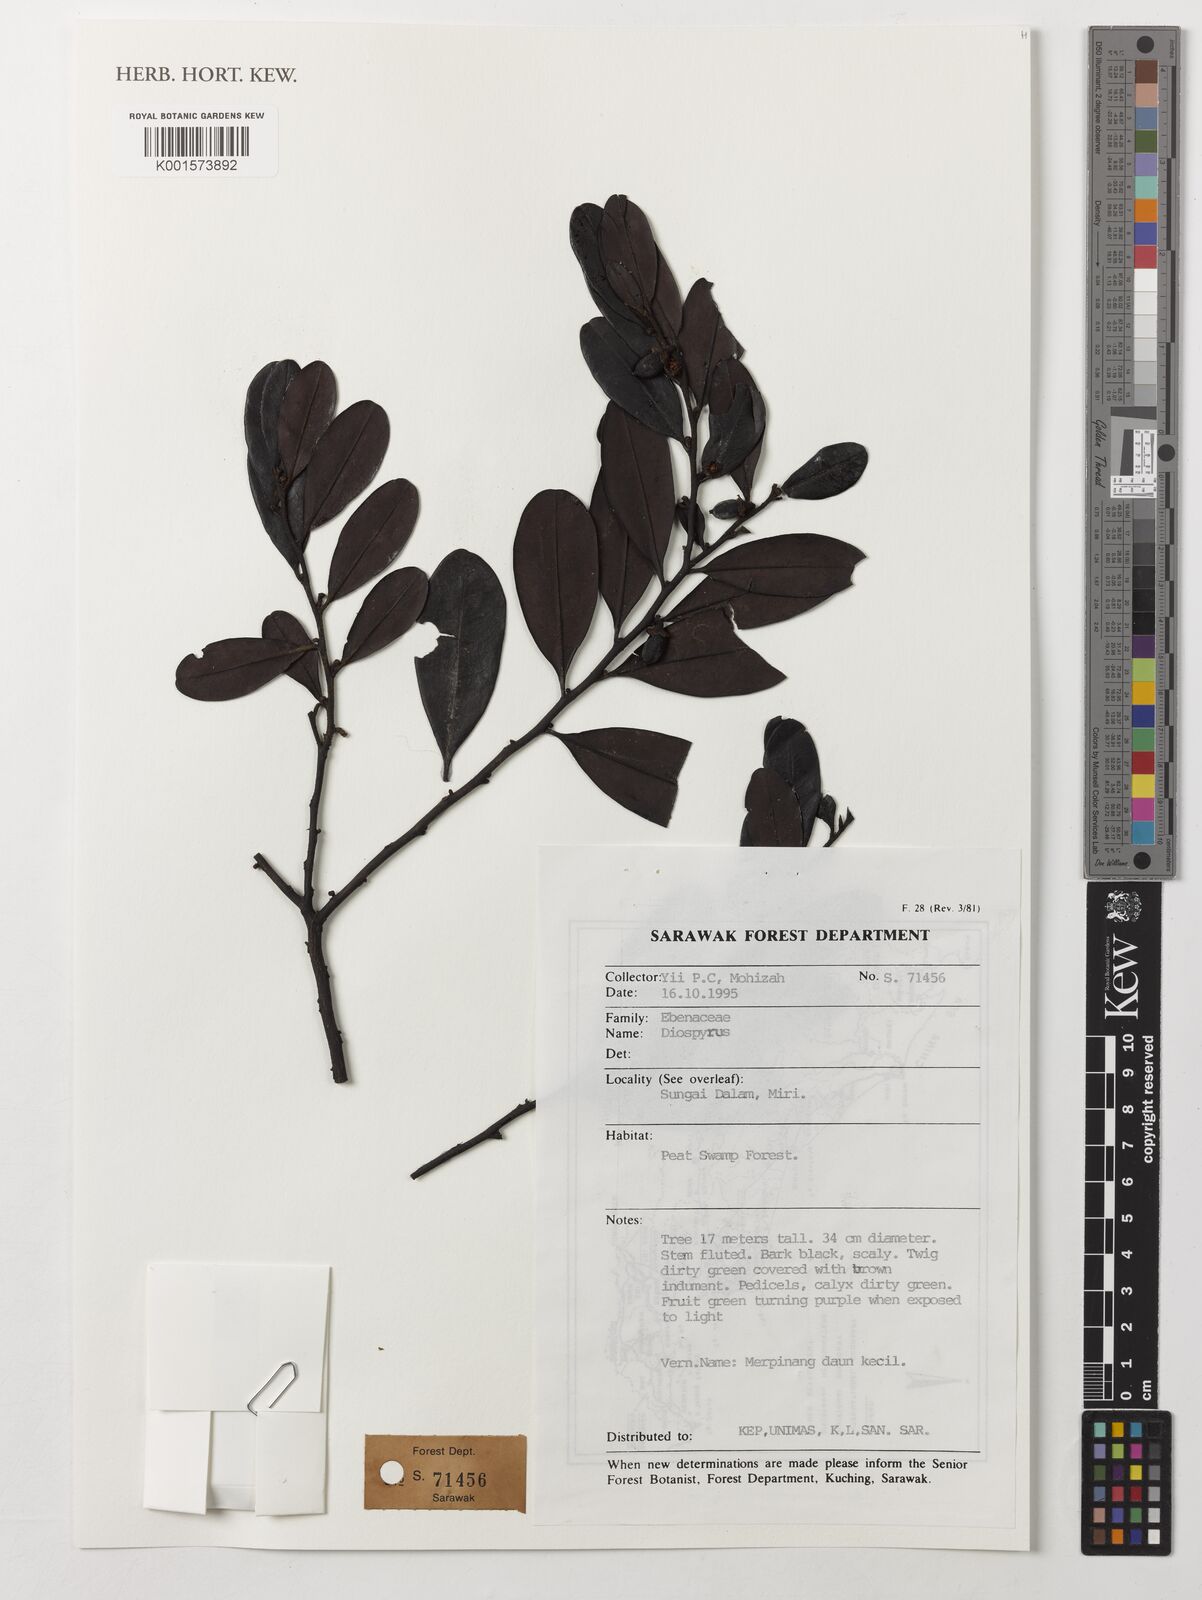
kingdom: Plantae
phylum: Tracheophyta
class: Magnoliopsida
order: Ericales
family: Ebenaceae
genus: Diospyros
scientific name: Diospyros
